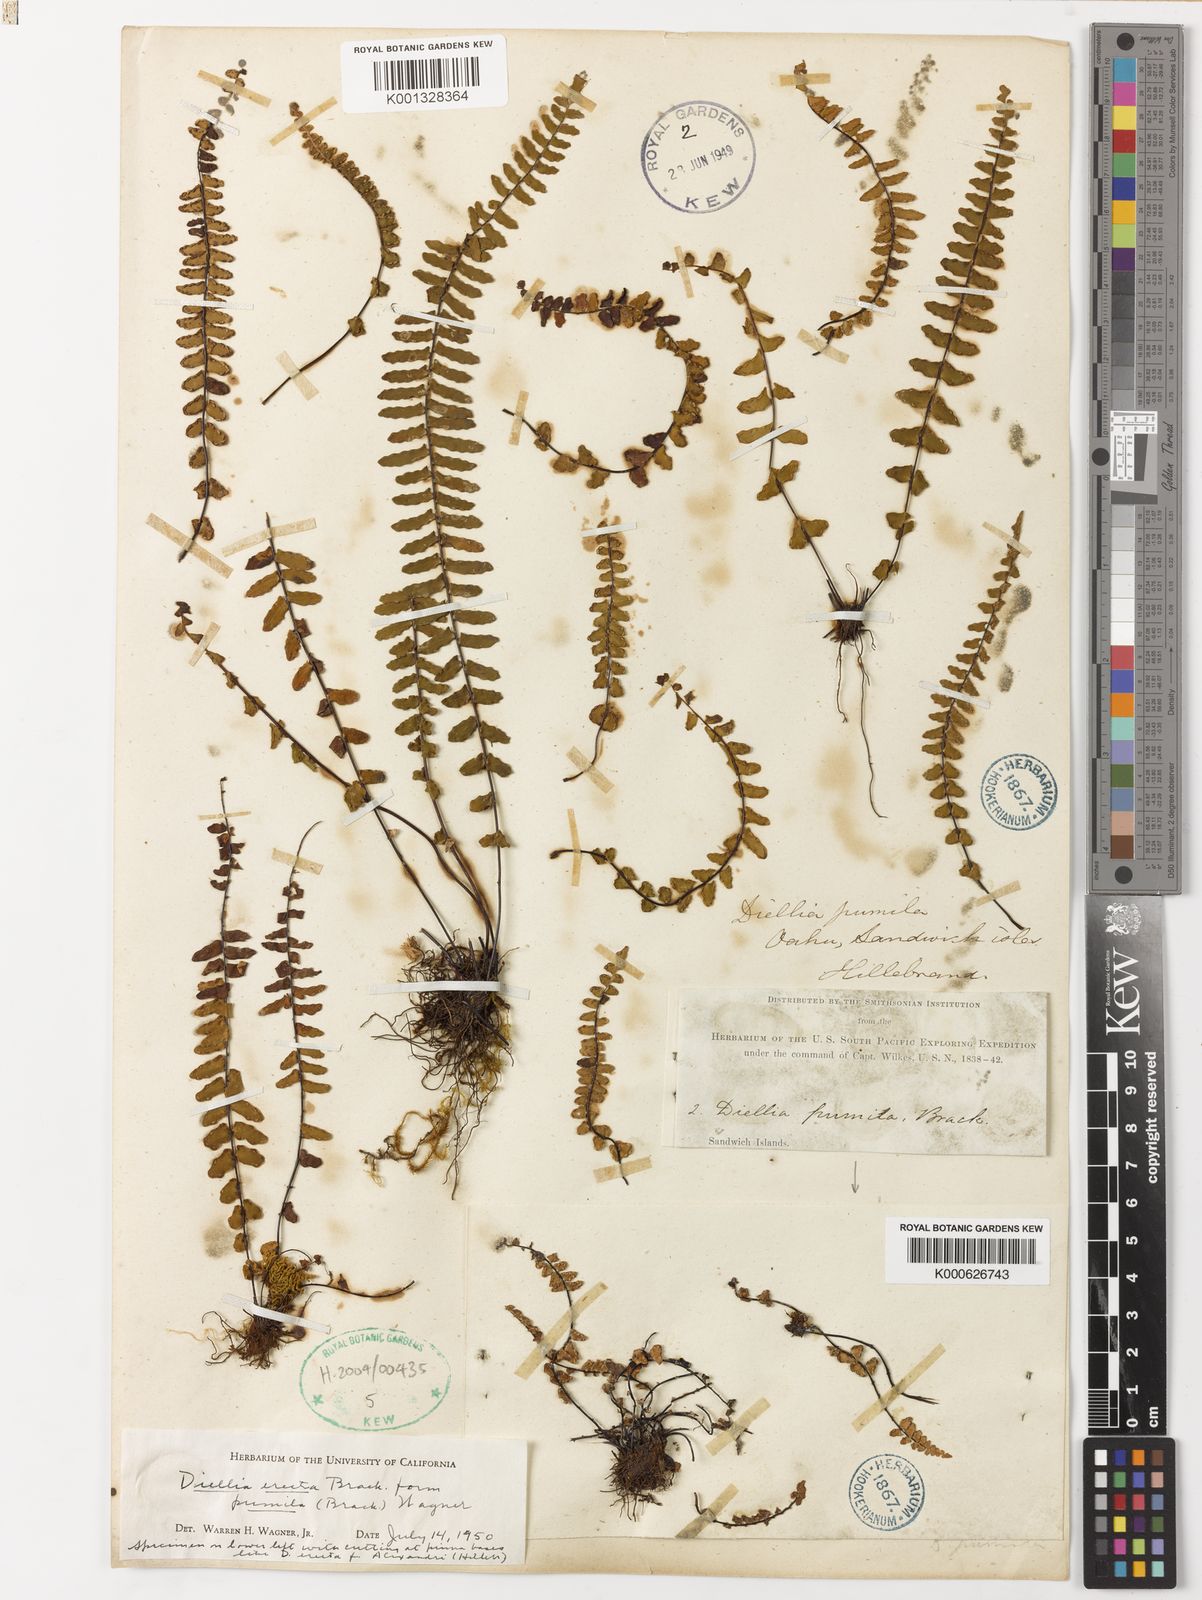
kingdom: Plantae
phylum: Tracheophyta
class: Polypodiopsida
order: Polypodiales
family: Aspleniaceae
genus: Asplenium
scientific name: Asplenium dielerectum
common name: Erect island spleenwort
